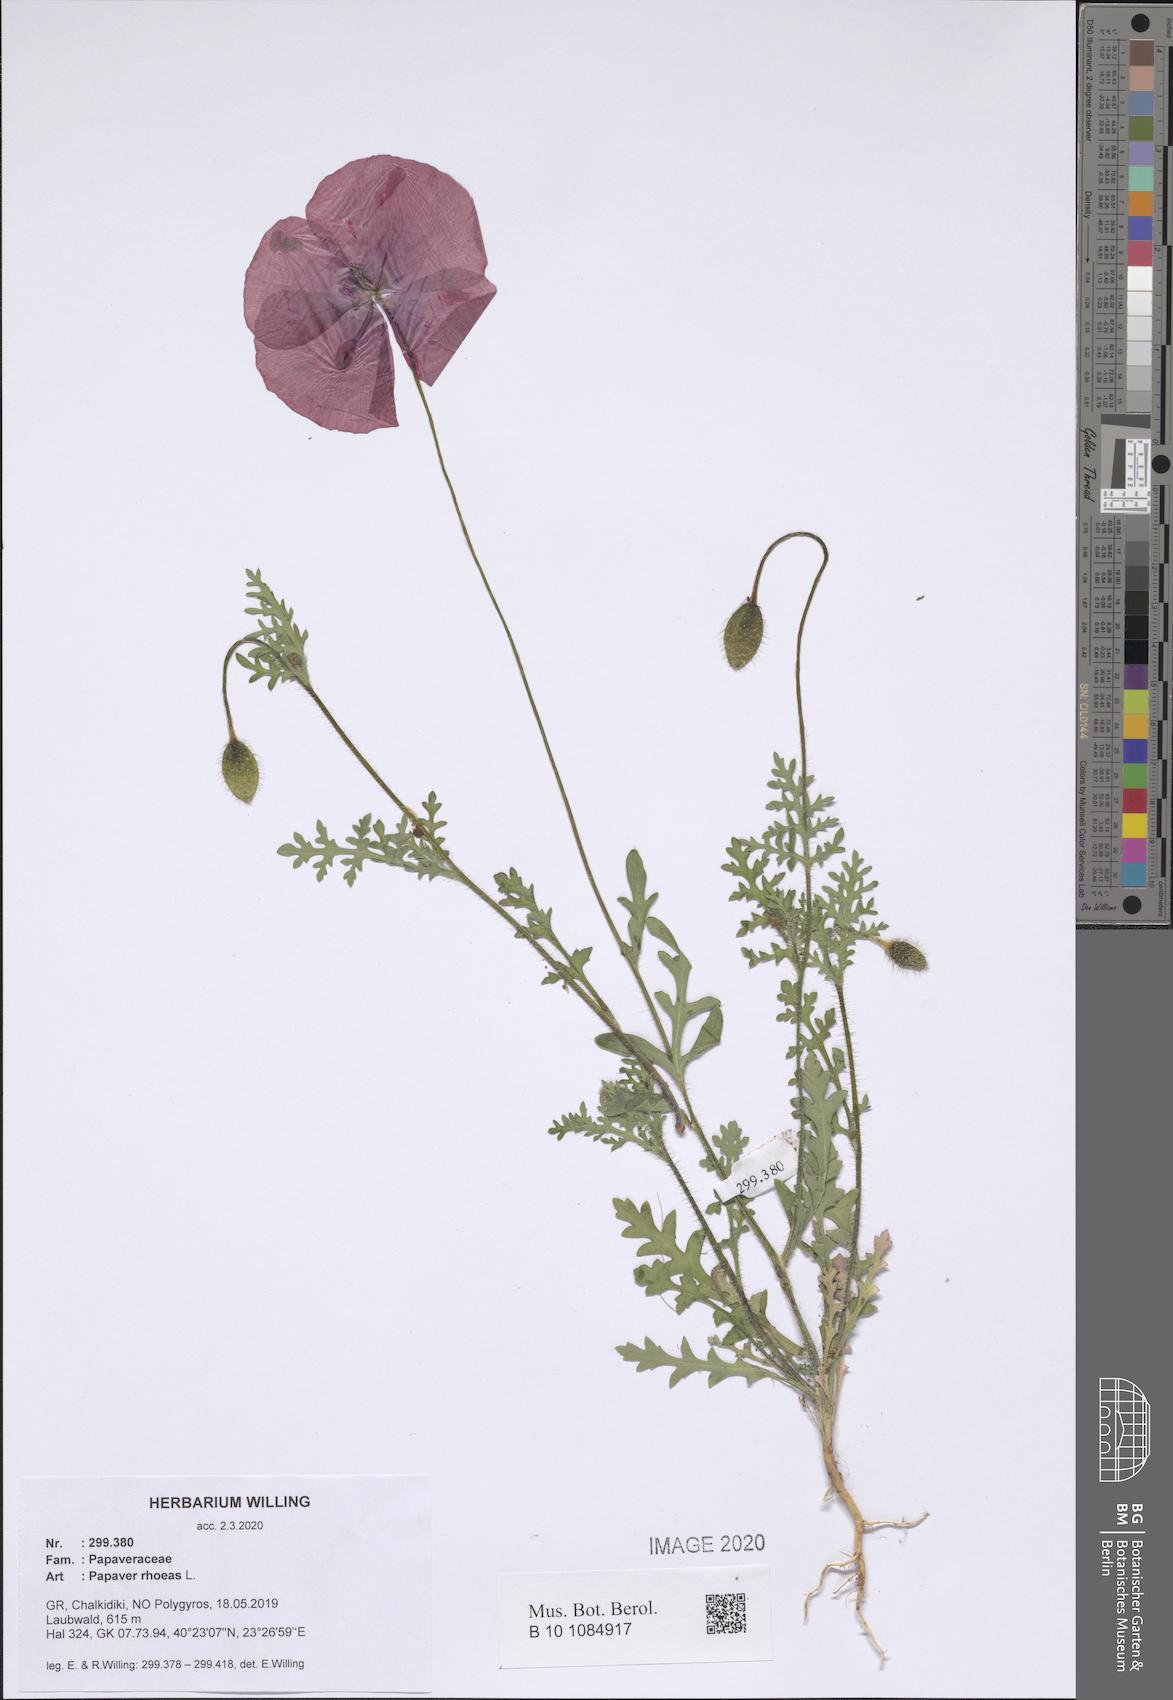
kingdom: Plantae
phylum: Tracheophyta
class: Magnoliopsida
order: Ranunculales
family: Papaveraceae
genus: Papaver
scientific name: Papaver rhoeas
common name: Corn poppy
